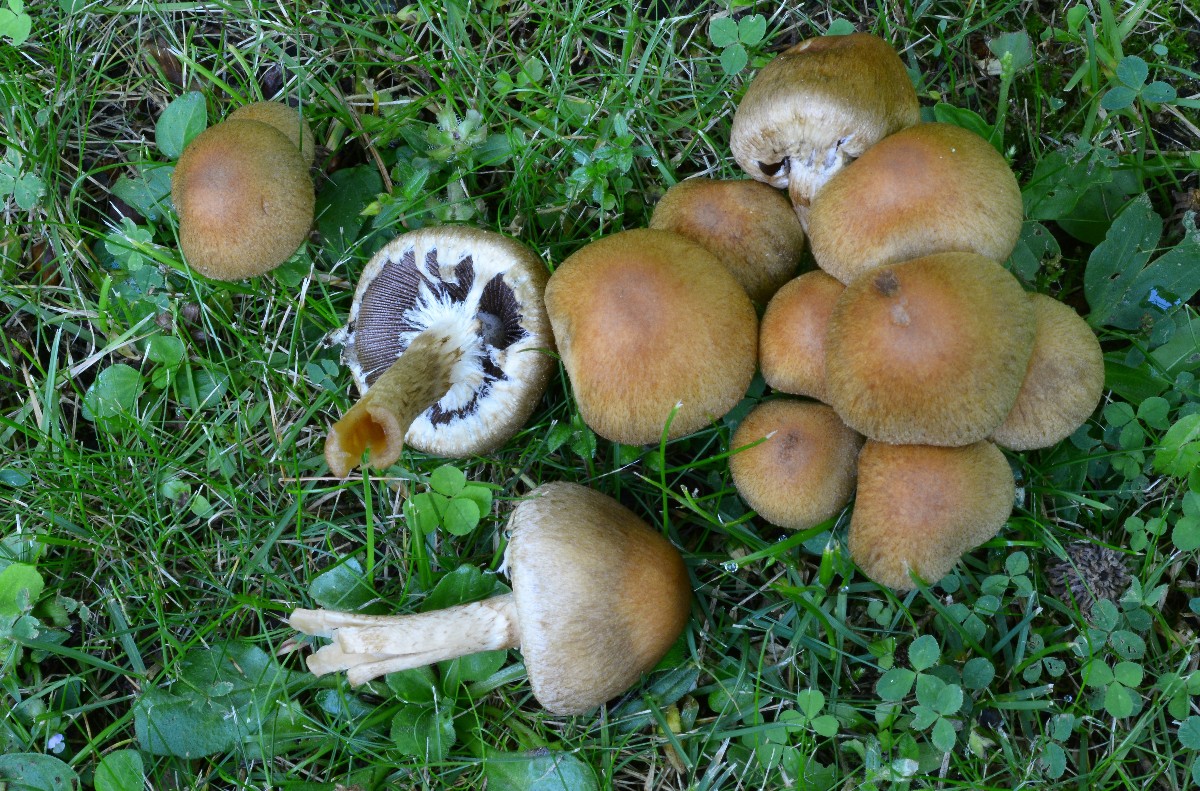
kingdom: Fungi
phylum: Basidiomycota
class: Agaricomycetes
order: Agaricales
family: Psathyrellaceae
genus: Lacrymaria
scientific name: Lacrymaria lacrymabunda
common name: grædende mørkhat
